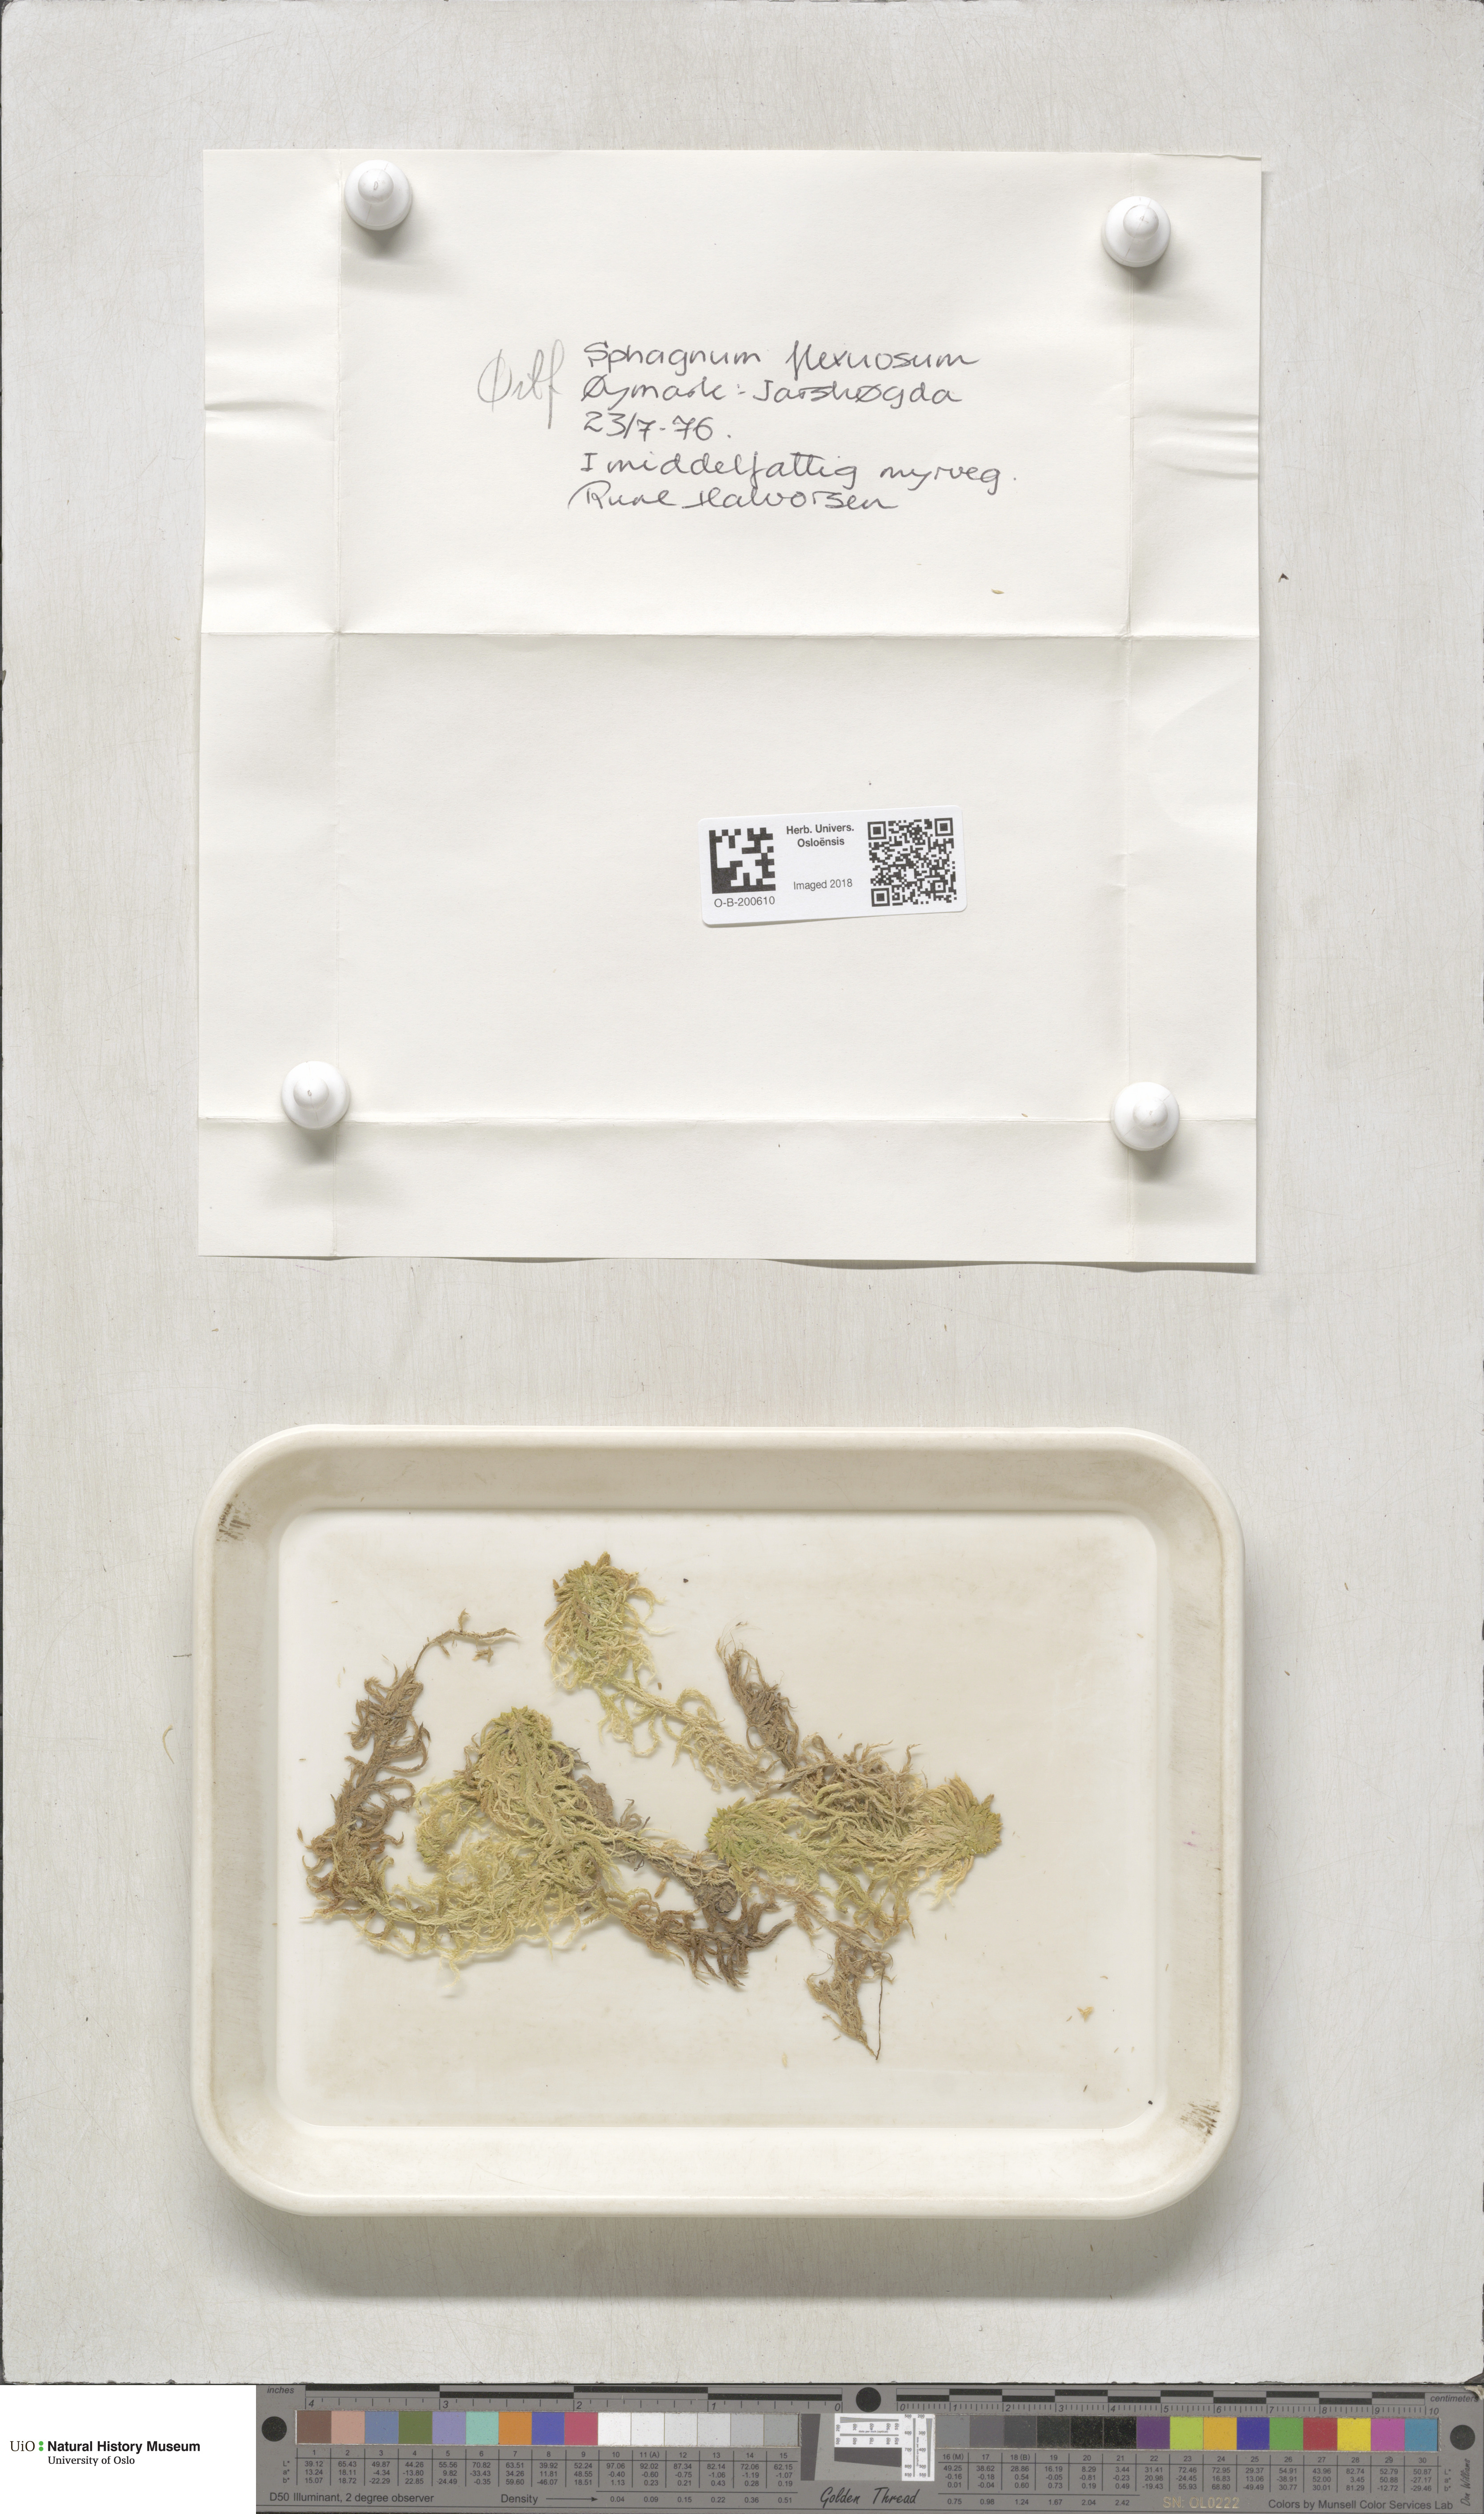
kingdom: Plantae
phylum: Bryophyta
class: Sphagnopsida
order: Sphagnales
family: Sphagnaceae
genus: Sphagnum
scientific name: Sphagnum flexuosum
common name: Flexible peat moss
